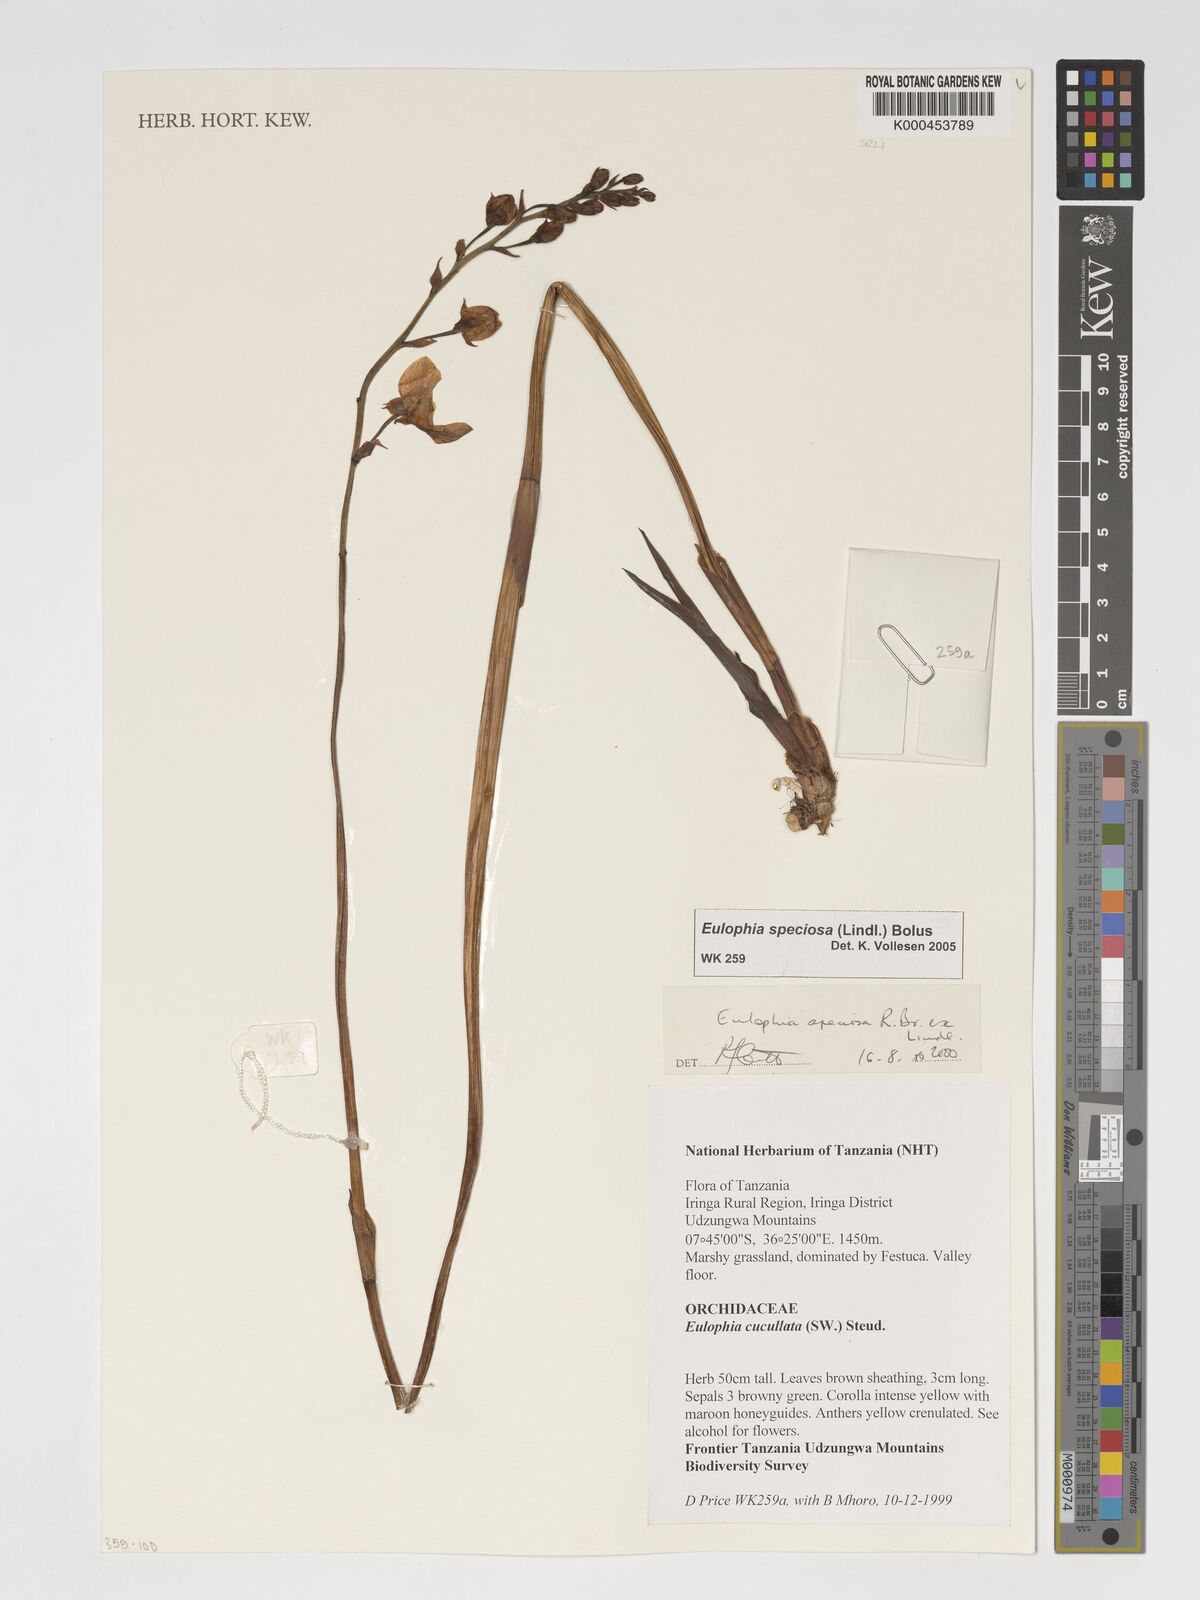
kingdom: Plantae
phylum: Tracheophyta
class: Liliopsida
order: Asparagales
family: Orchidaceae
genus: Eulophia
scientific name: Eulophia speciosa
